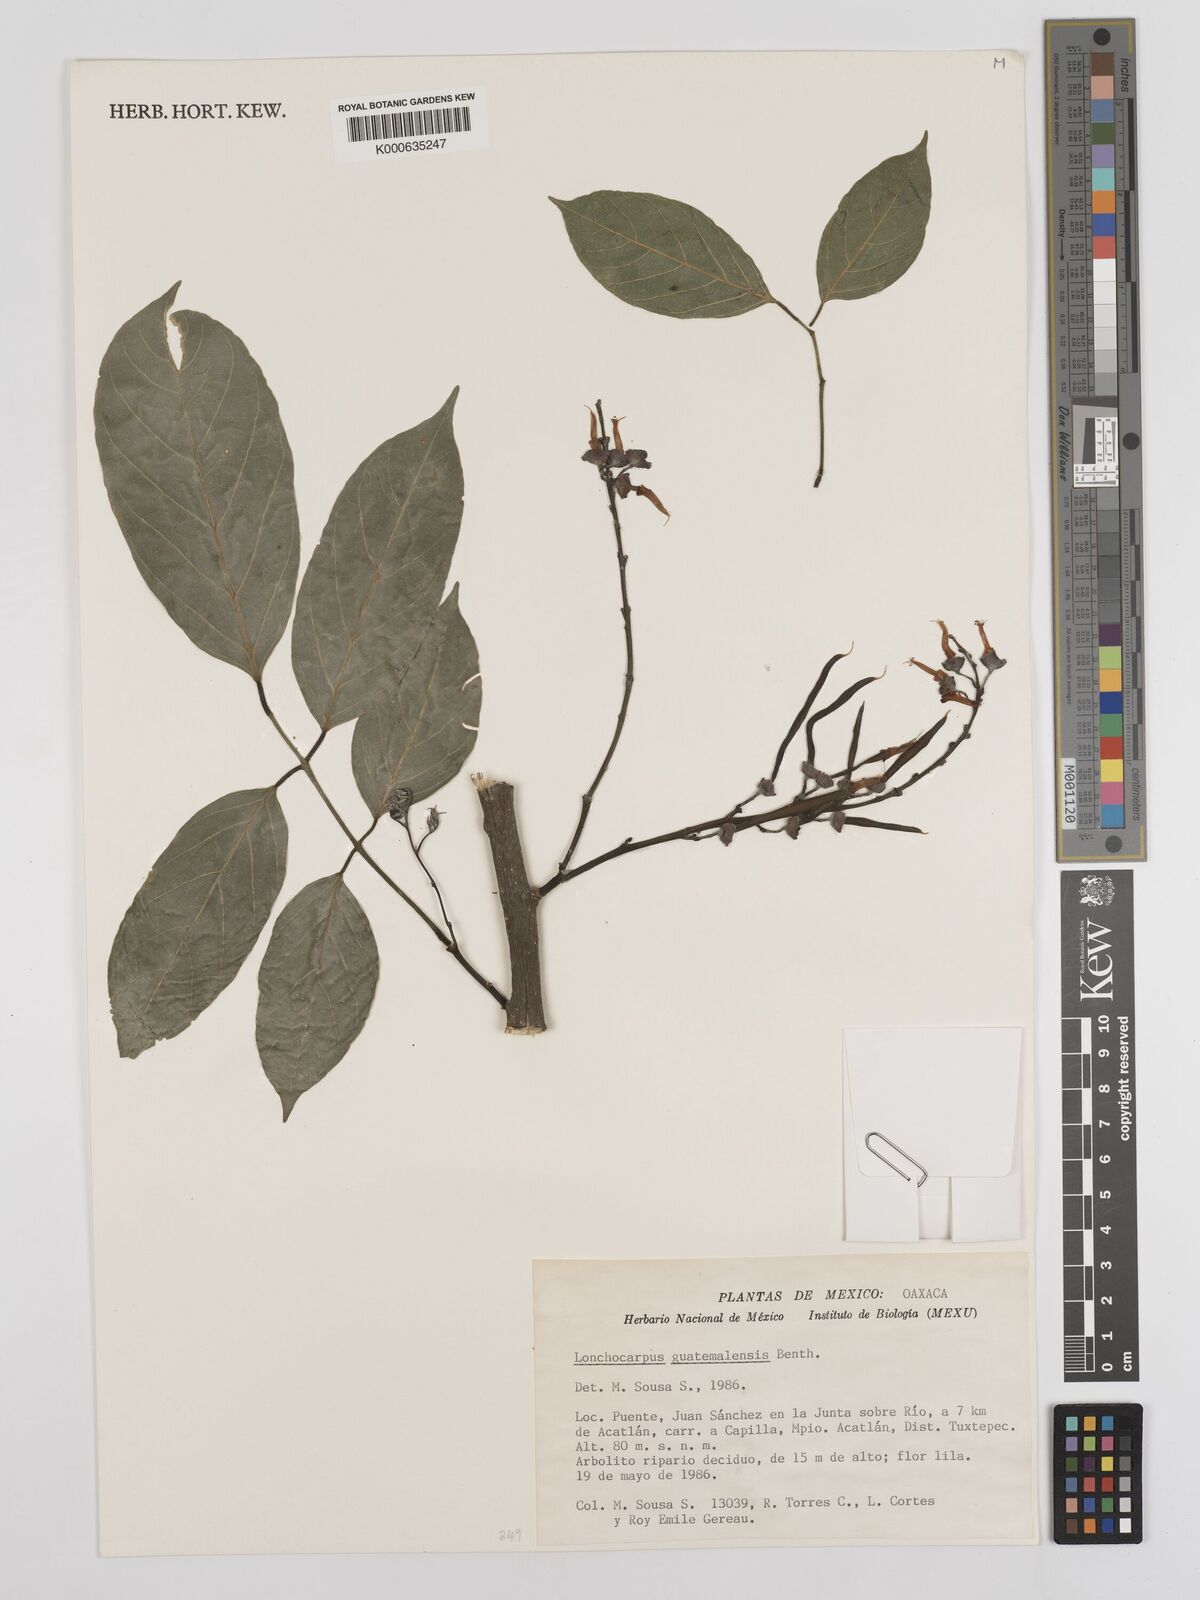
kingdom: Plantae
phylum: Tracheophyta
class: Magnoliopsida
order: Fabales
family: Fabaceae
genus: Lonchocarpus
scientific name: Lonchocarpus guatemalensis
